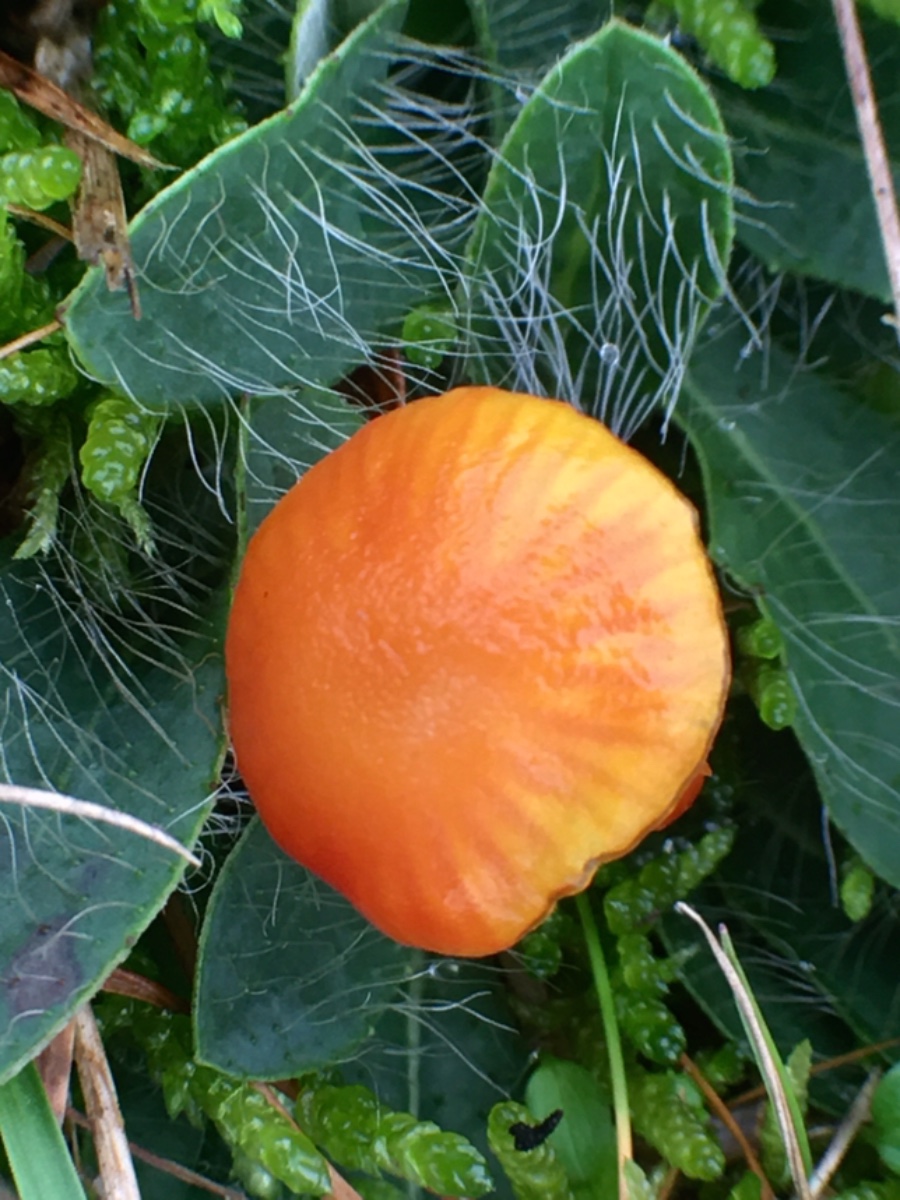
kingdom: Fungi
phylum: Basidiomycota
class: Agaricomycetes
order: Agaricales
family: Hygrophoraceae
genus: Hygrocybe
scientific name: Hygrocybe insipida
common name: liden vokshat
